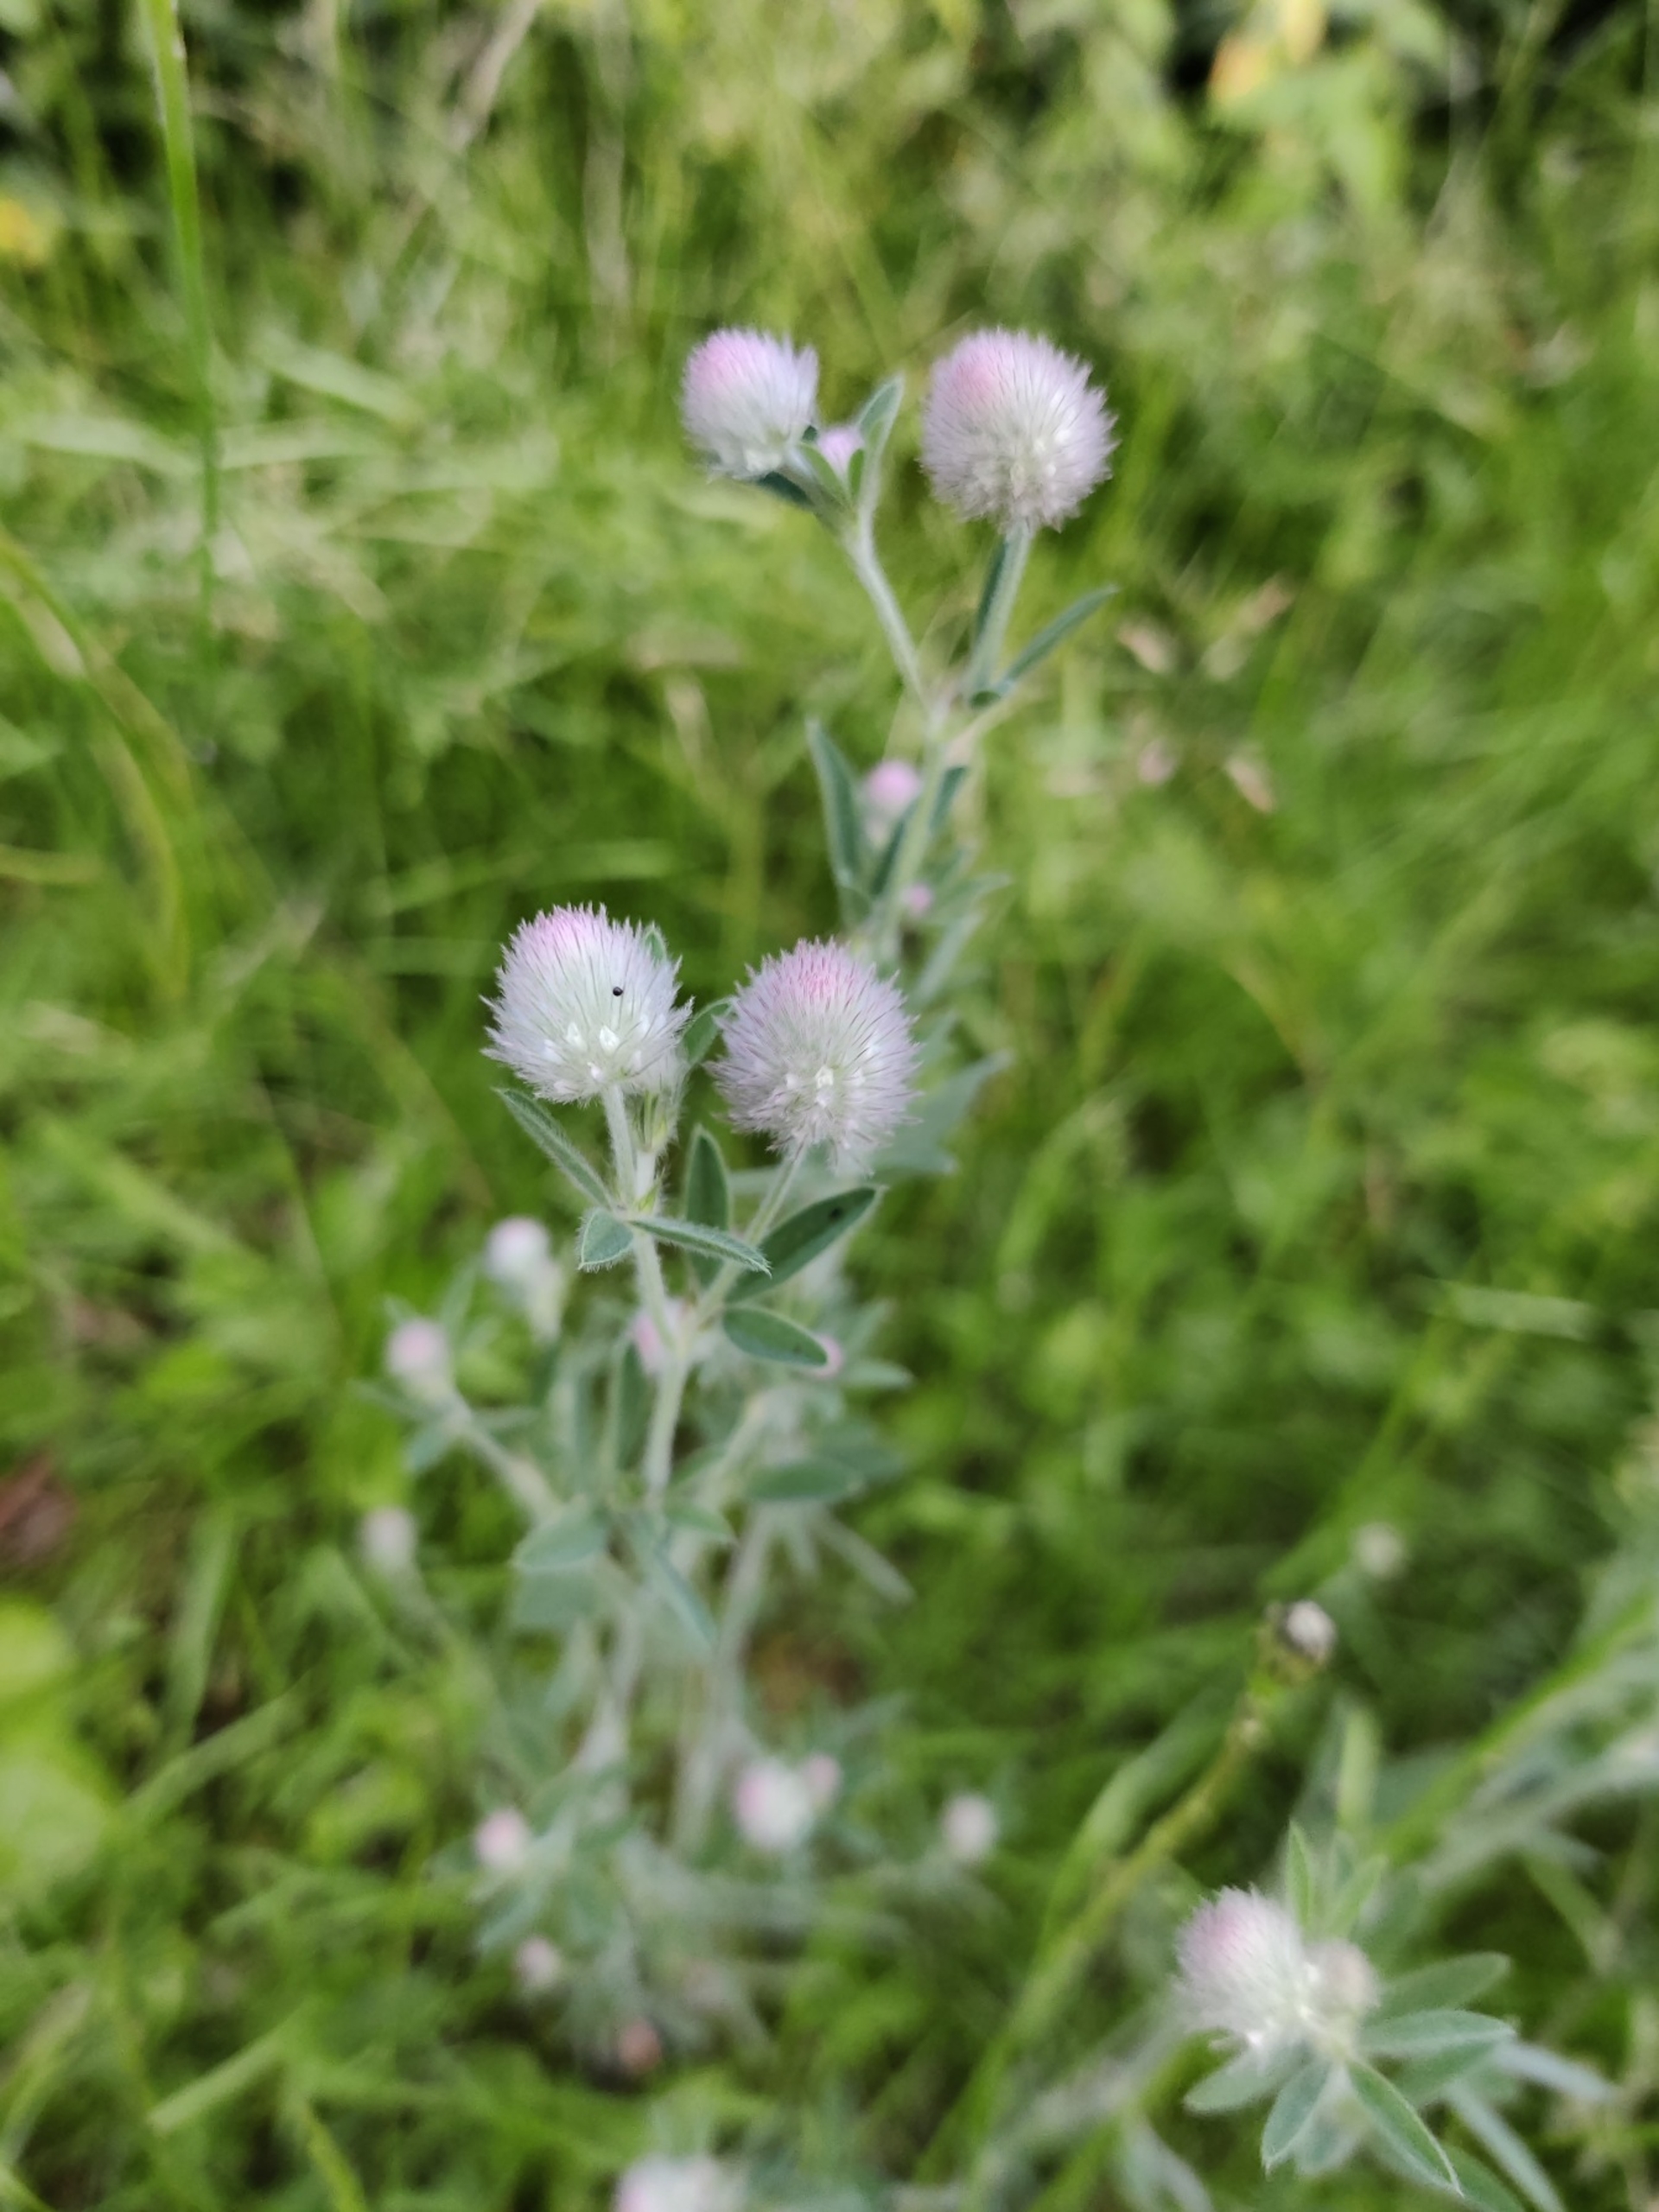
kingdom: Plantae
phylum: Tracheophyta
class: Magnoliopsida
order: Fabales
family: Fabaceae
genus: Trifolium
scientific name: Trifolium arvense
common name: Hare-kløver
